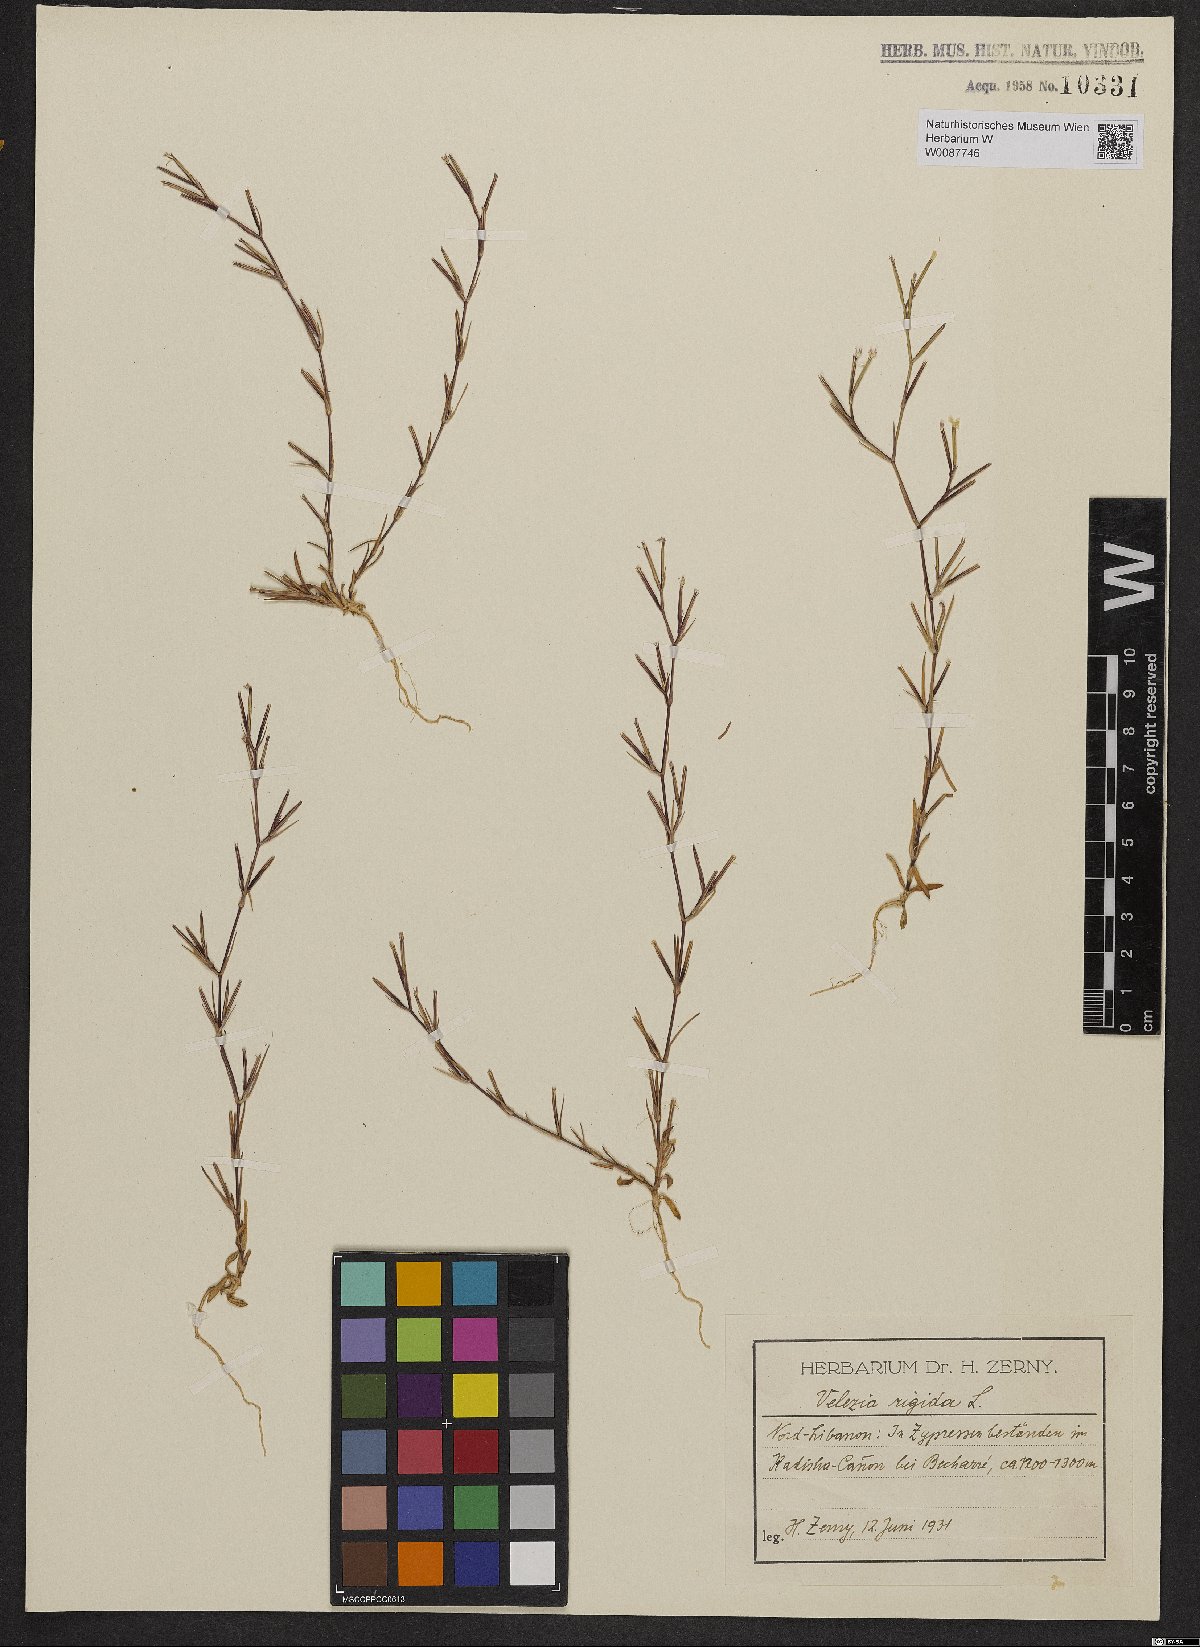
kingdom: Plantae
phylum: Tracheophyta
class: Magnoliopsida
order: Caryophyllales
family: Caryophyllaceae
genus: Dianthus
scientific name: Dianthus nudiflorus
